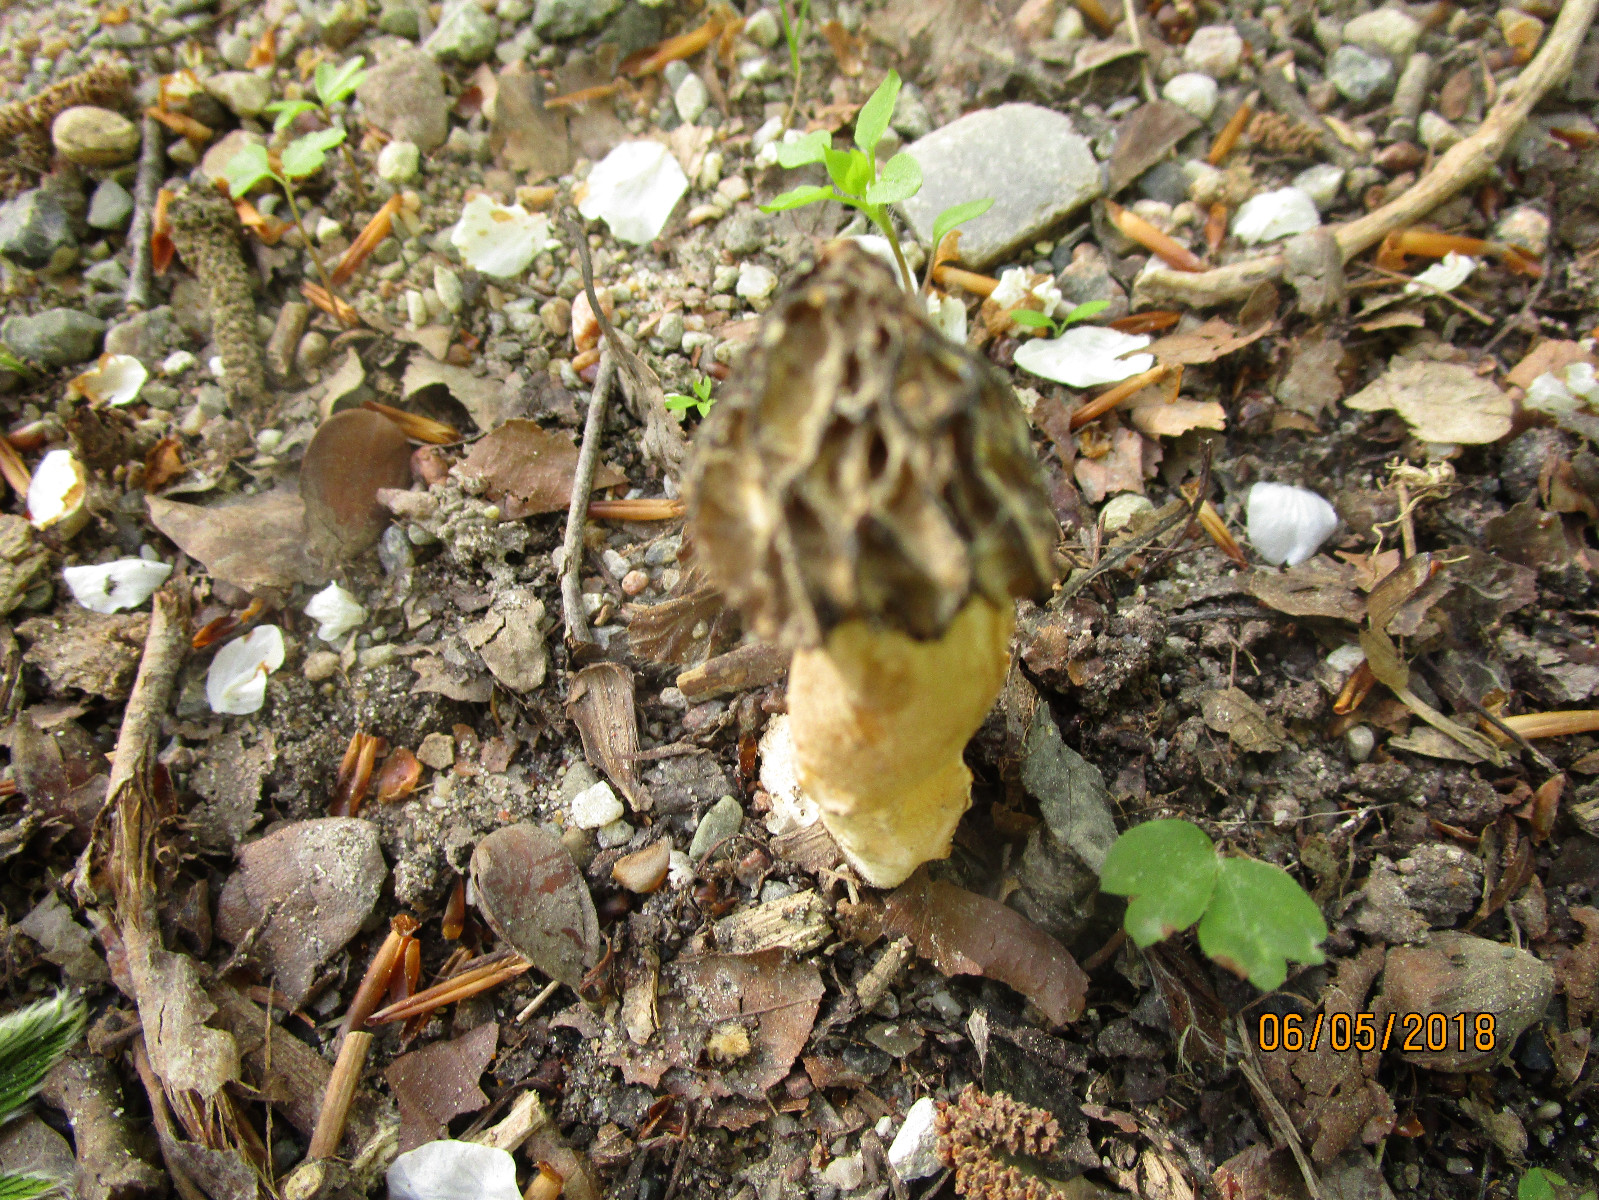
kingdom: Fungi
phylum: Ascomycota
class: Pezizomycetes
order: Pezizales
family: Morchellaceae
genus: Morchella
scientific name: Morchella semilibera
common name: hætte-morkel
